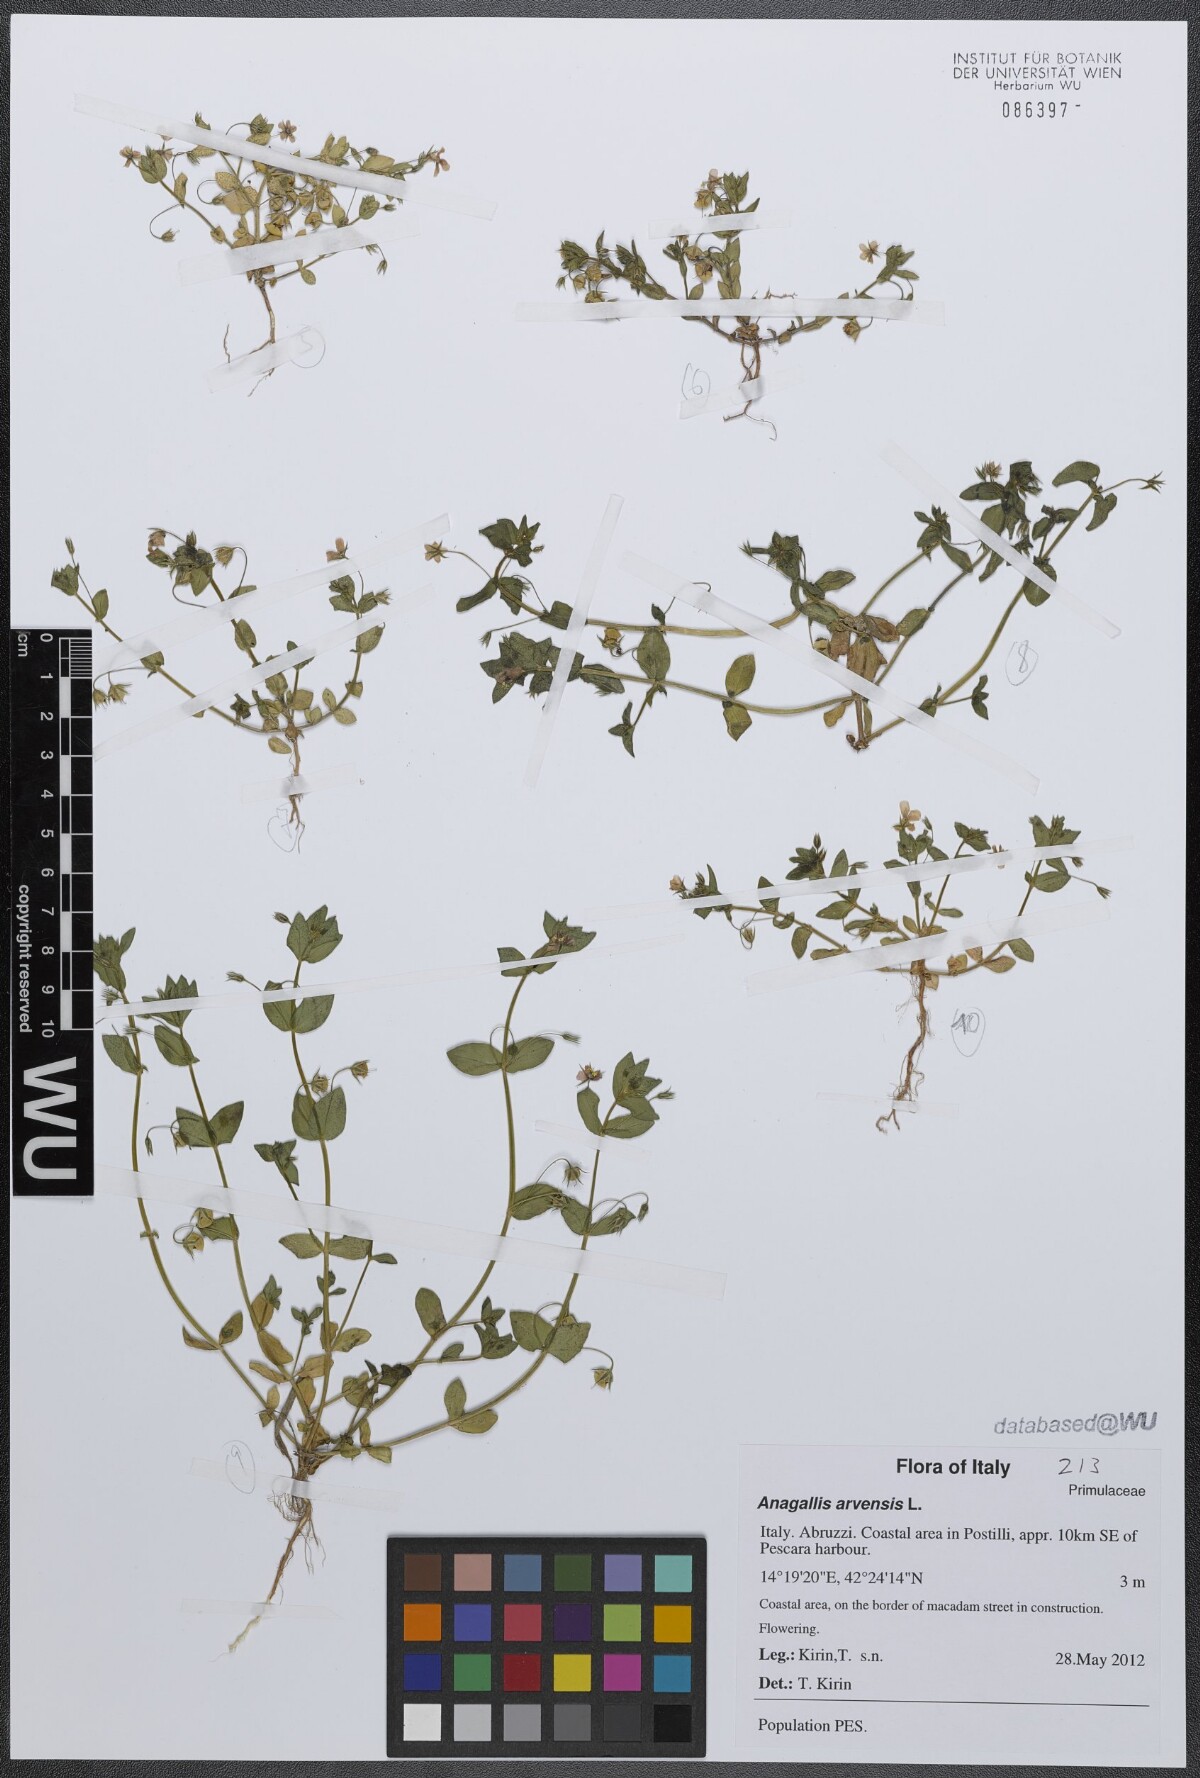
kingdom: Plantae
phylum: Tracheophyta
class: Magnoliopsida
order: Ericales
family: Primulaceae
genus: Lysimachia
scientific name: Lysimachia arvensis
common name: Scarlet pimpernel
